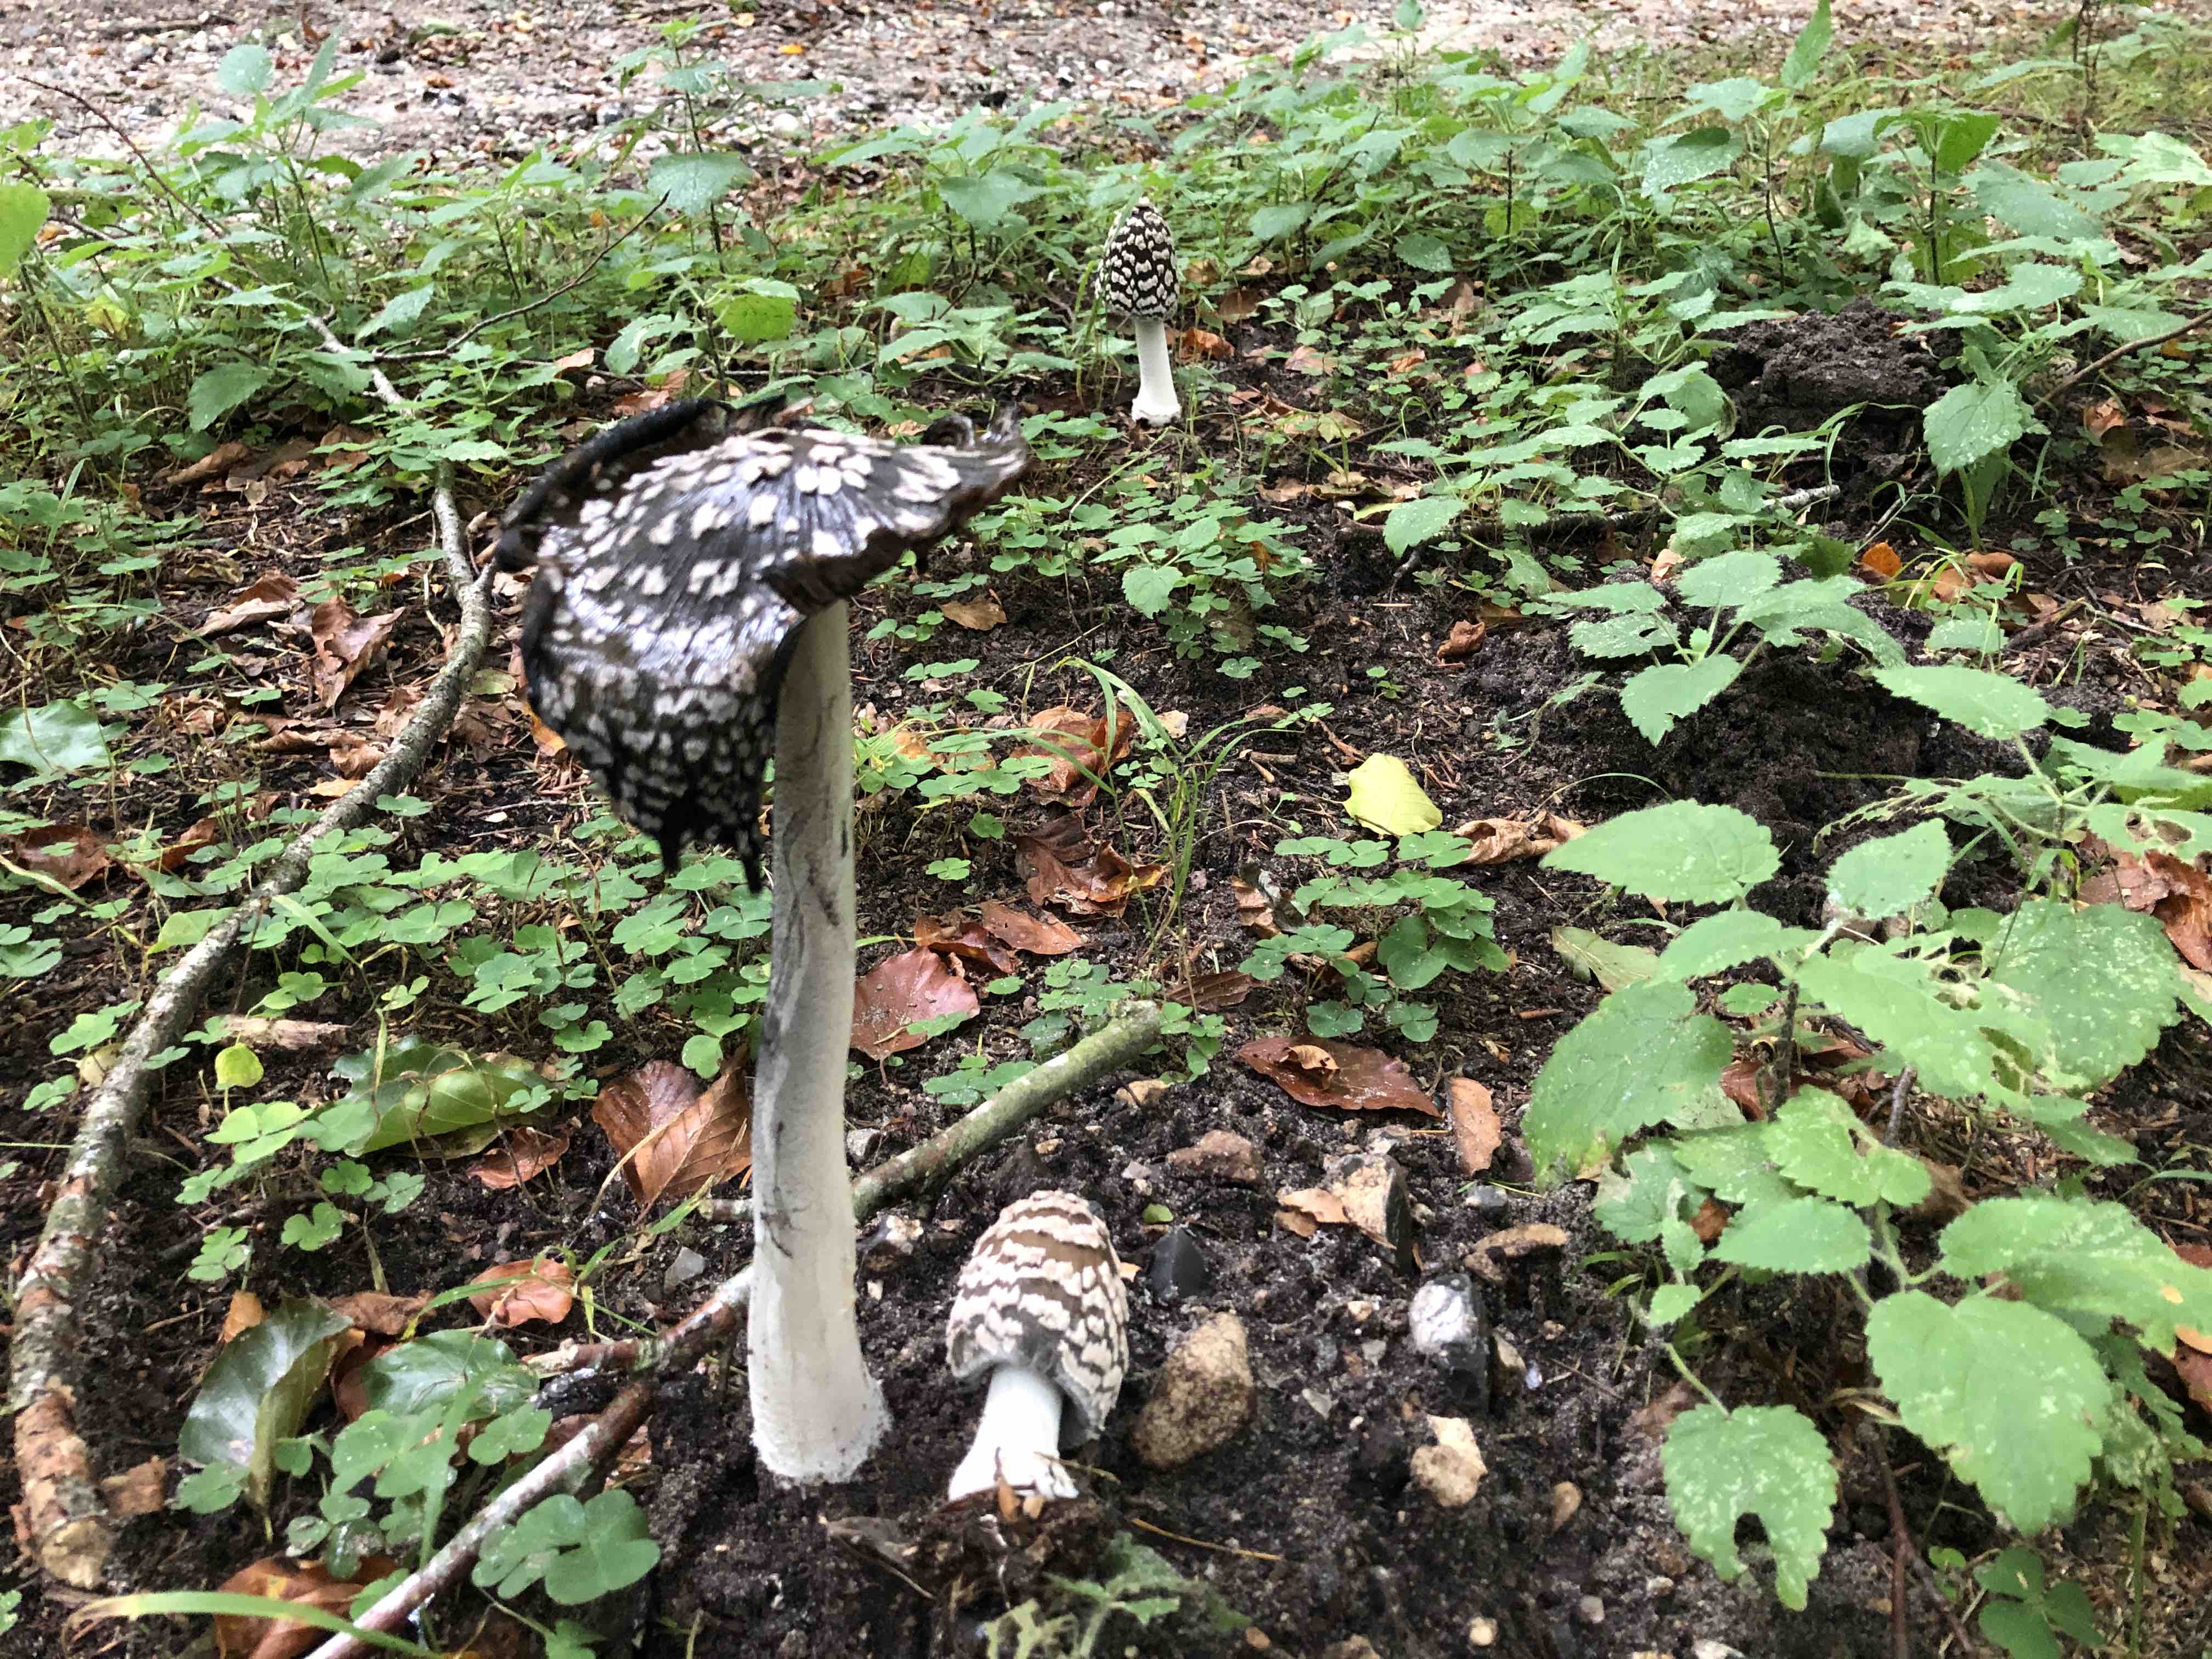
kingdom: Fungi
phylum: Basidiomycota
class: Agaricomycetes
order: Agaricales
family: Psathyrellaceae
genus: Coprinopsis
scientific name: Coprinopsis picacea
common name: skade-blækhat
